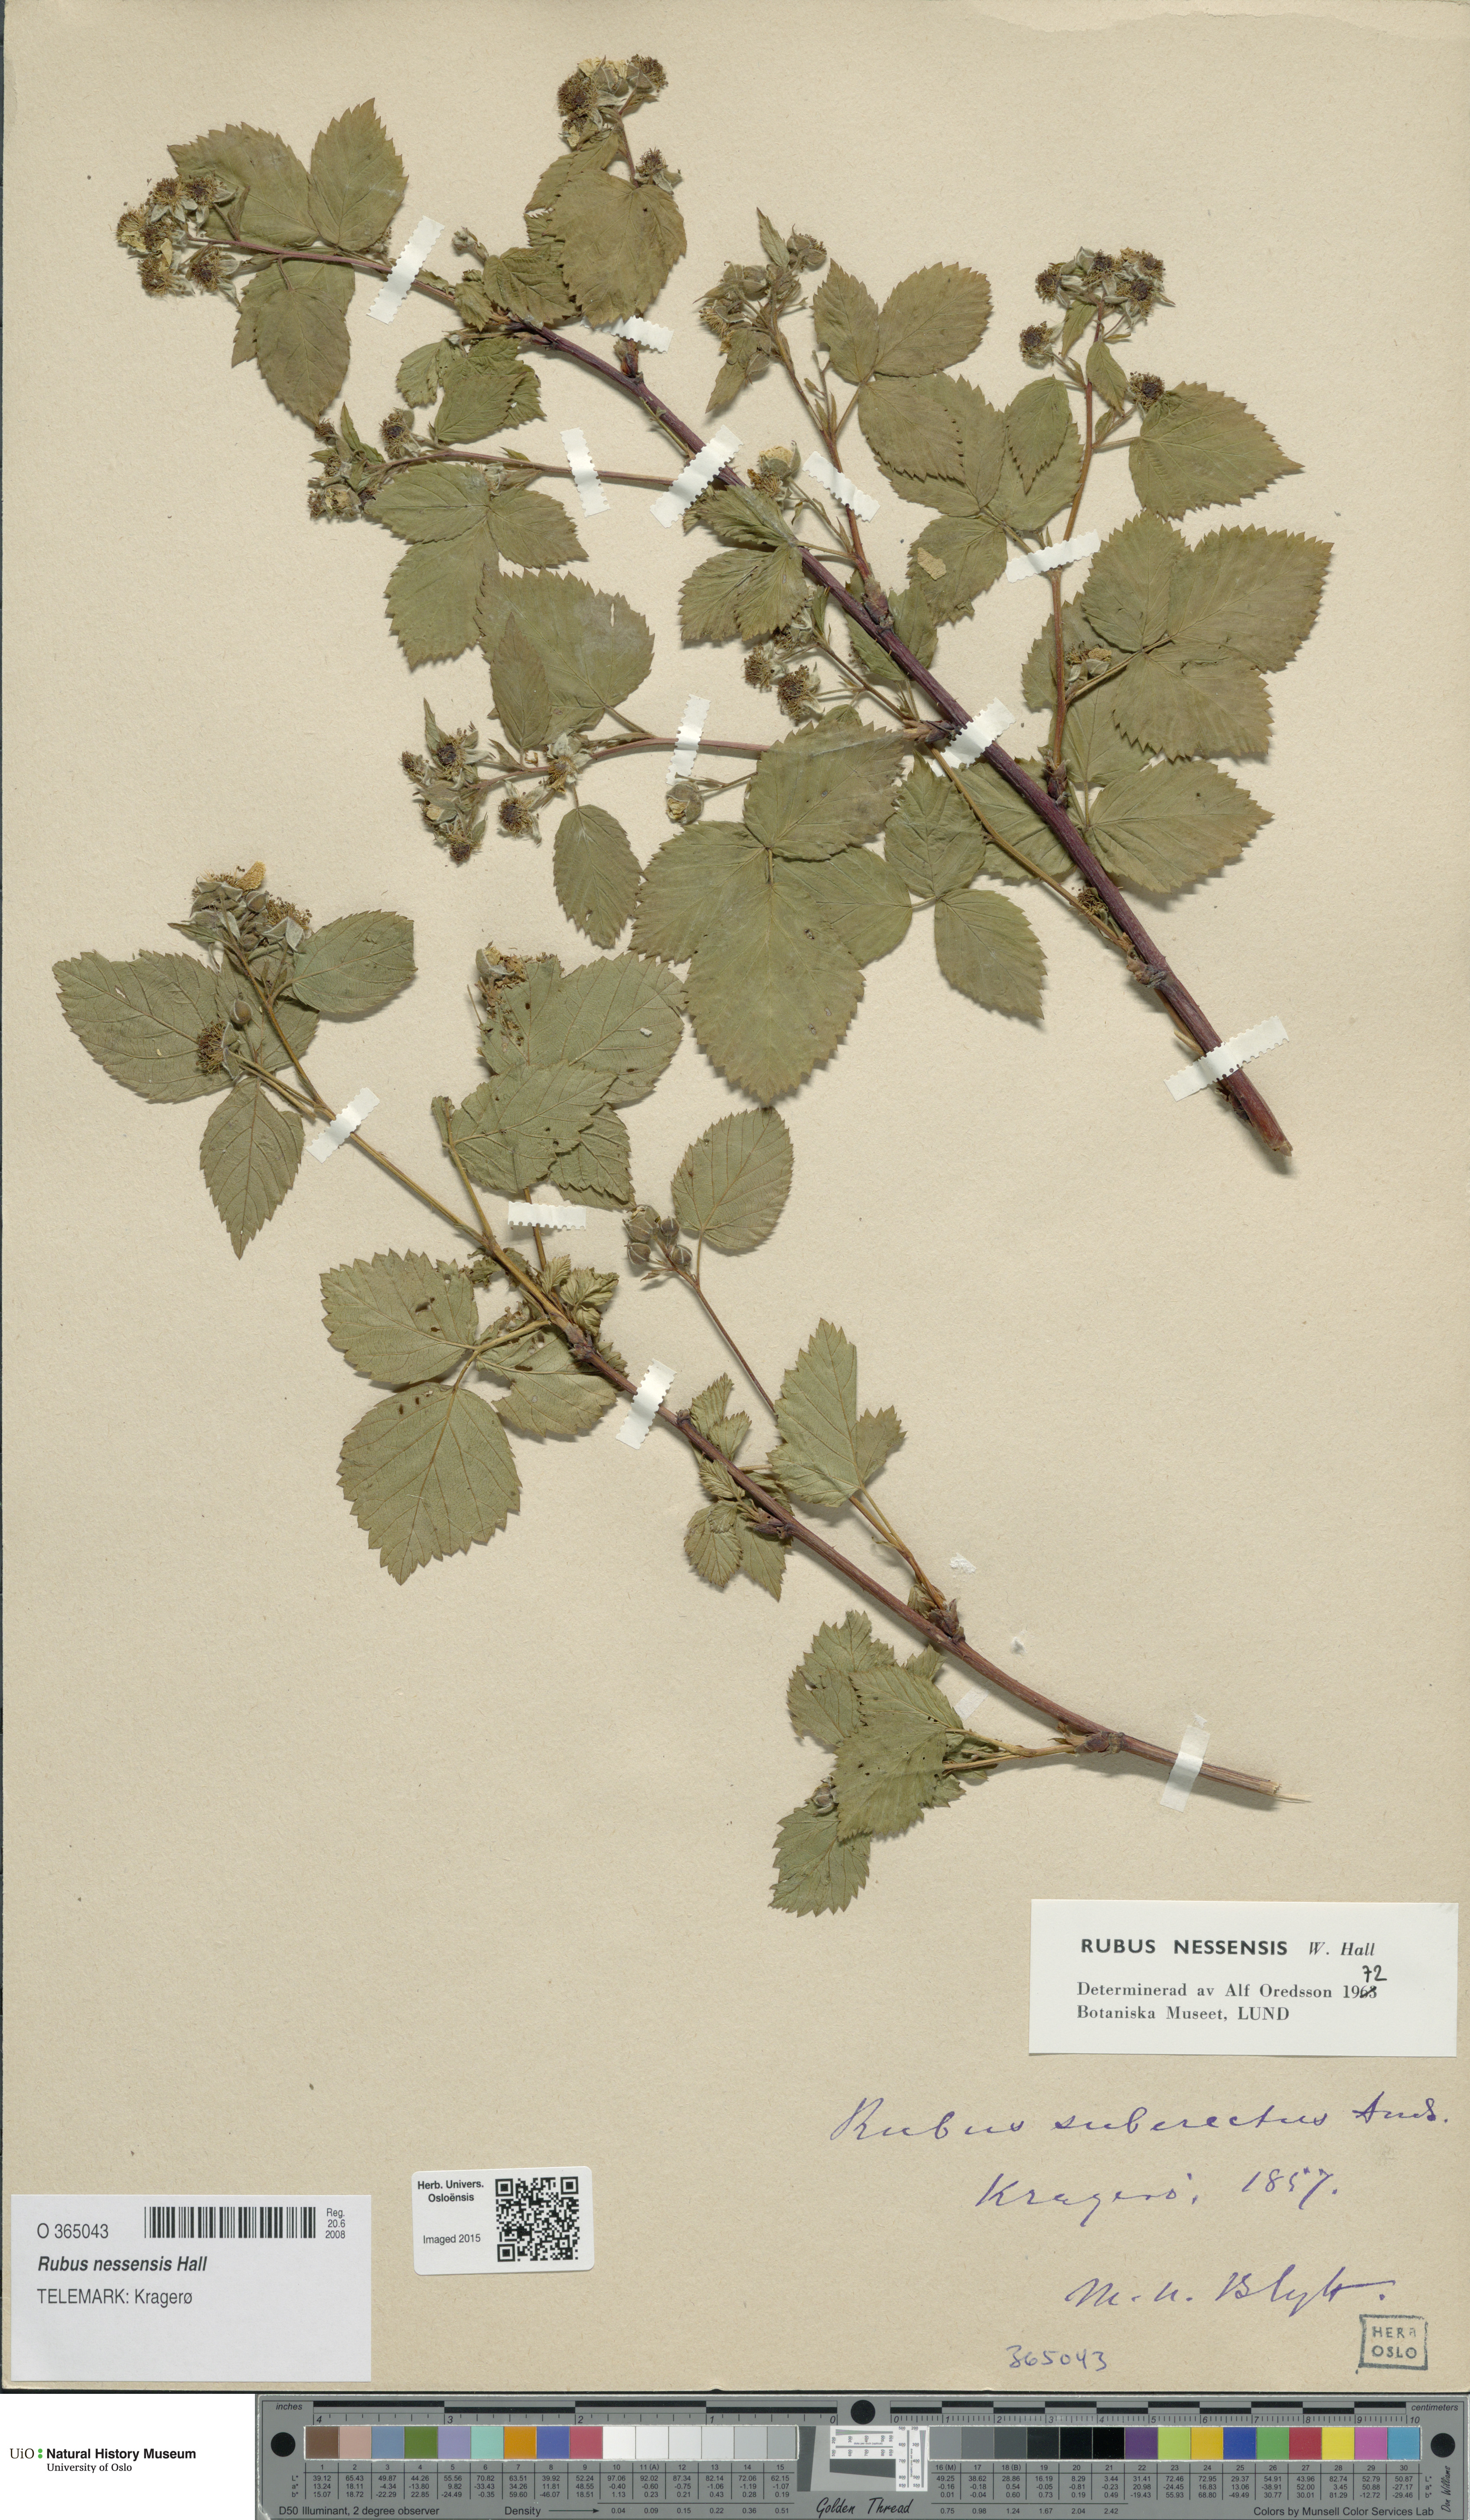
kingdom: Plantae
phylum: Tracheophyta
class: Magnoliopsida
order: Rosales
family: Rosaceae
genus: Rubus
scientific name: Rubus polonicus
